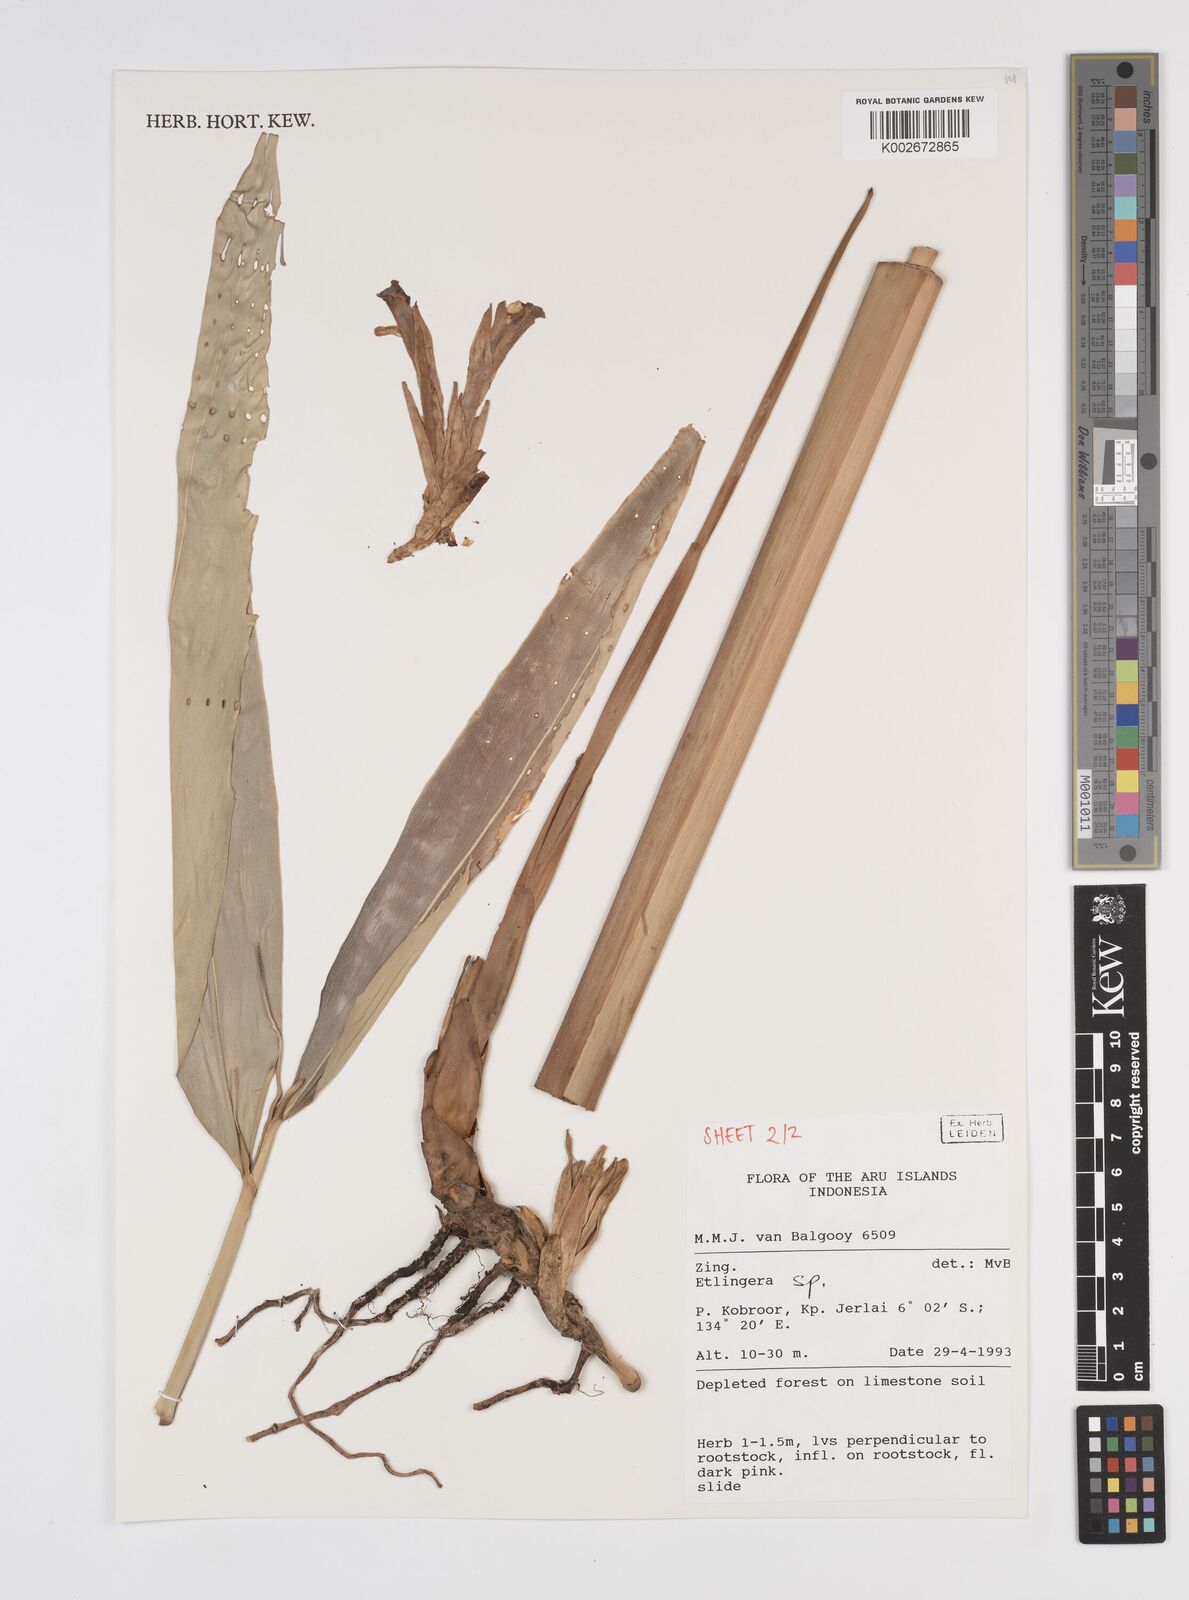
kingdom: Plantae
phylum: Tracheophyta
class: Liliopsida
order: Zingiberales
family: Zingiberaceae
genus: Etlingera
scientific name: Etlingera
